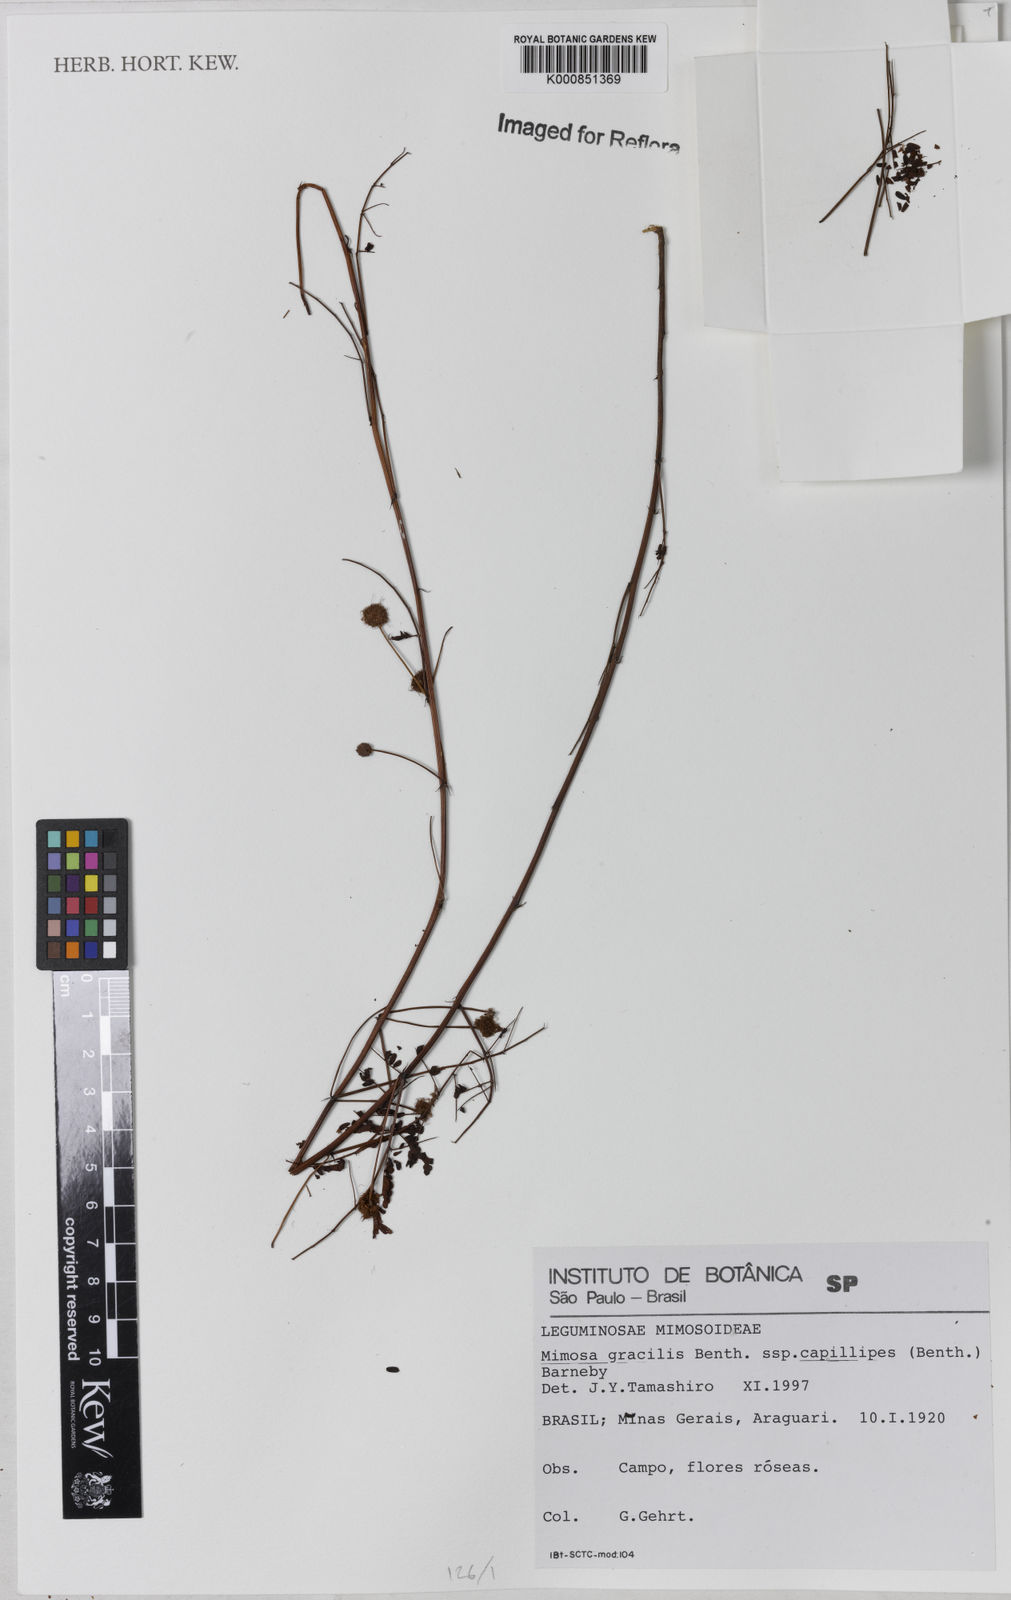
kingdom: Plantae
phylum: Tracheophyta
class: Magnoliopsida
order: Fabales
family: Fabaceae
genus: Mimosa
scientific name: Mimosa gracilis
